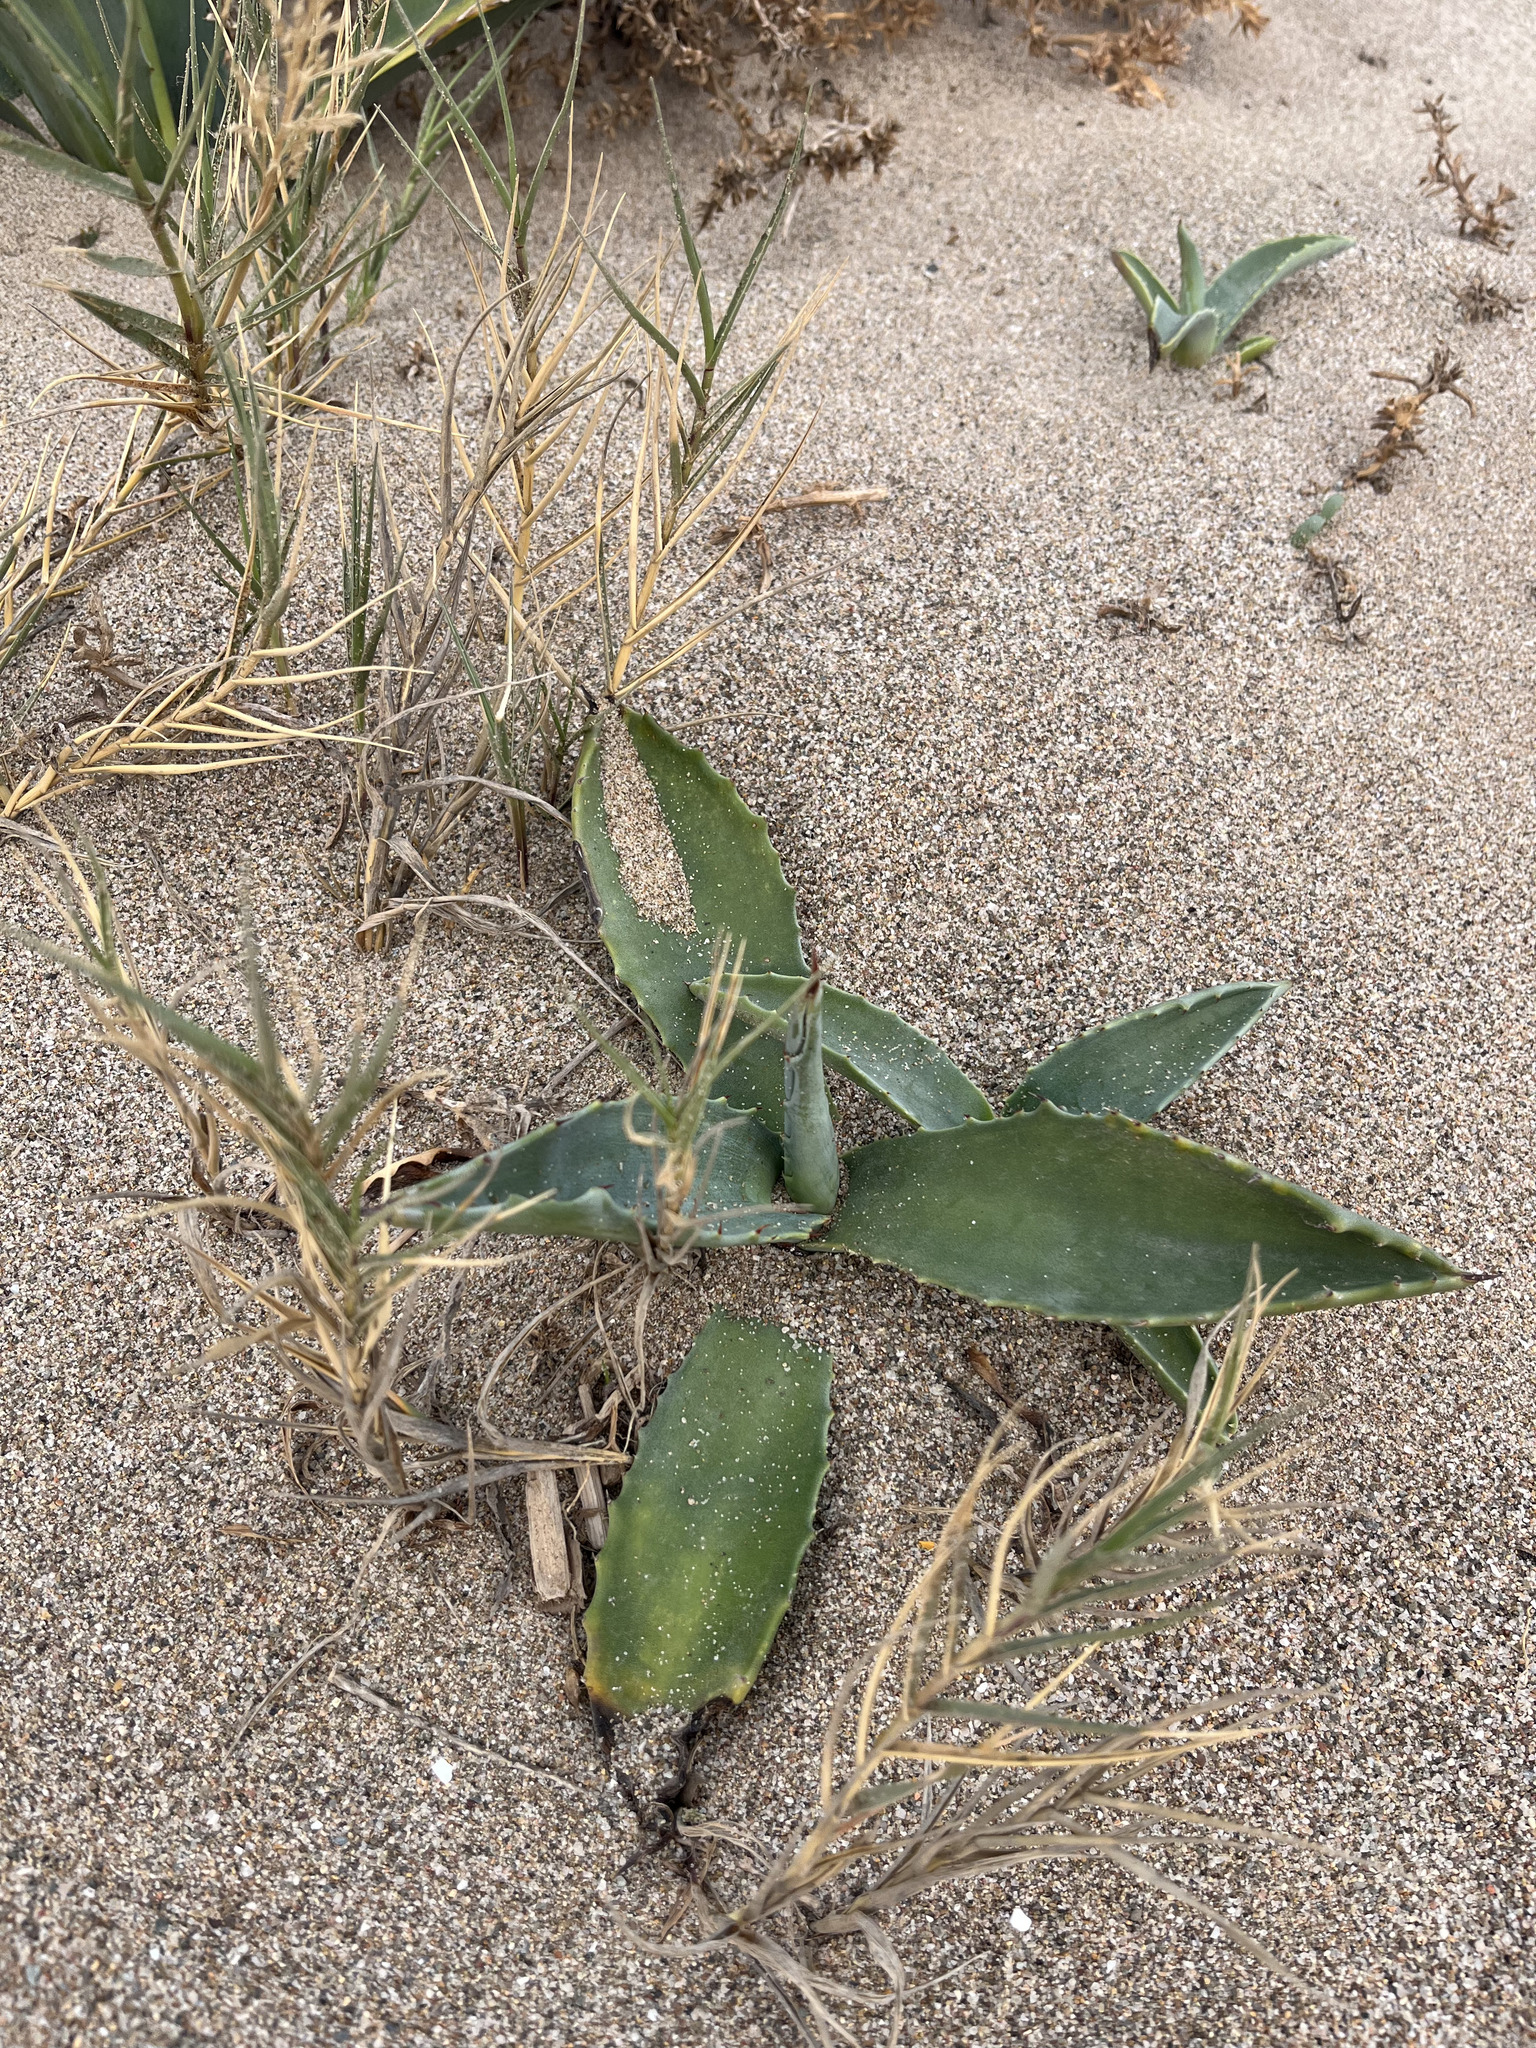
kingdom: Plantae
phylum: Tracheophyta
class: Liliopsida
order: Asparagales
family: Asparagaceae
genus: Agave
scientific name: Agave americana
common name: Centuryplant
